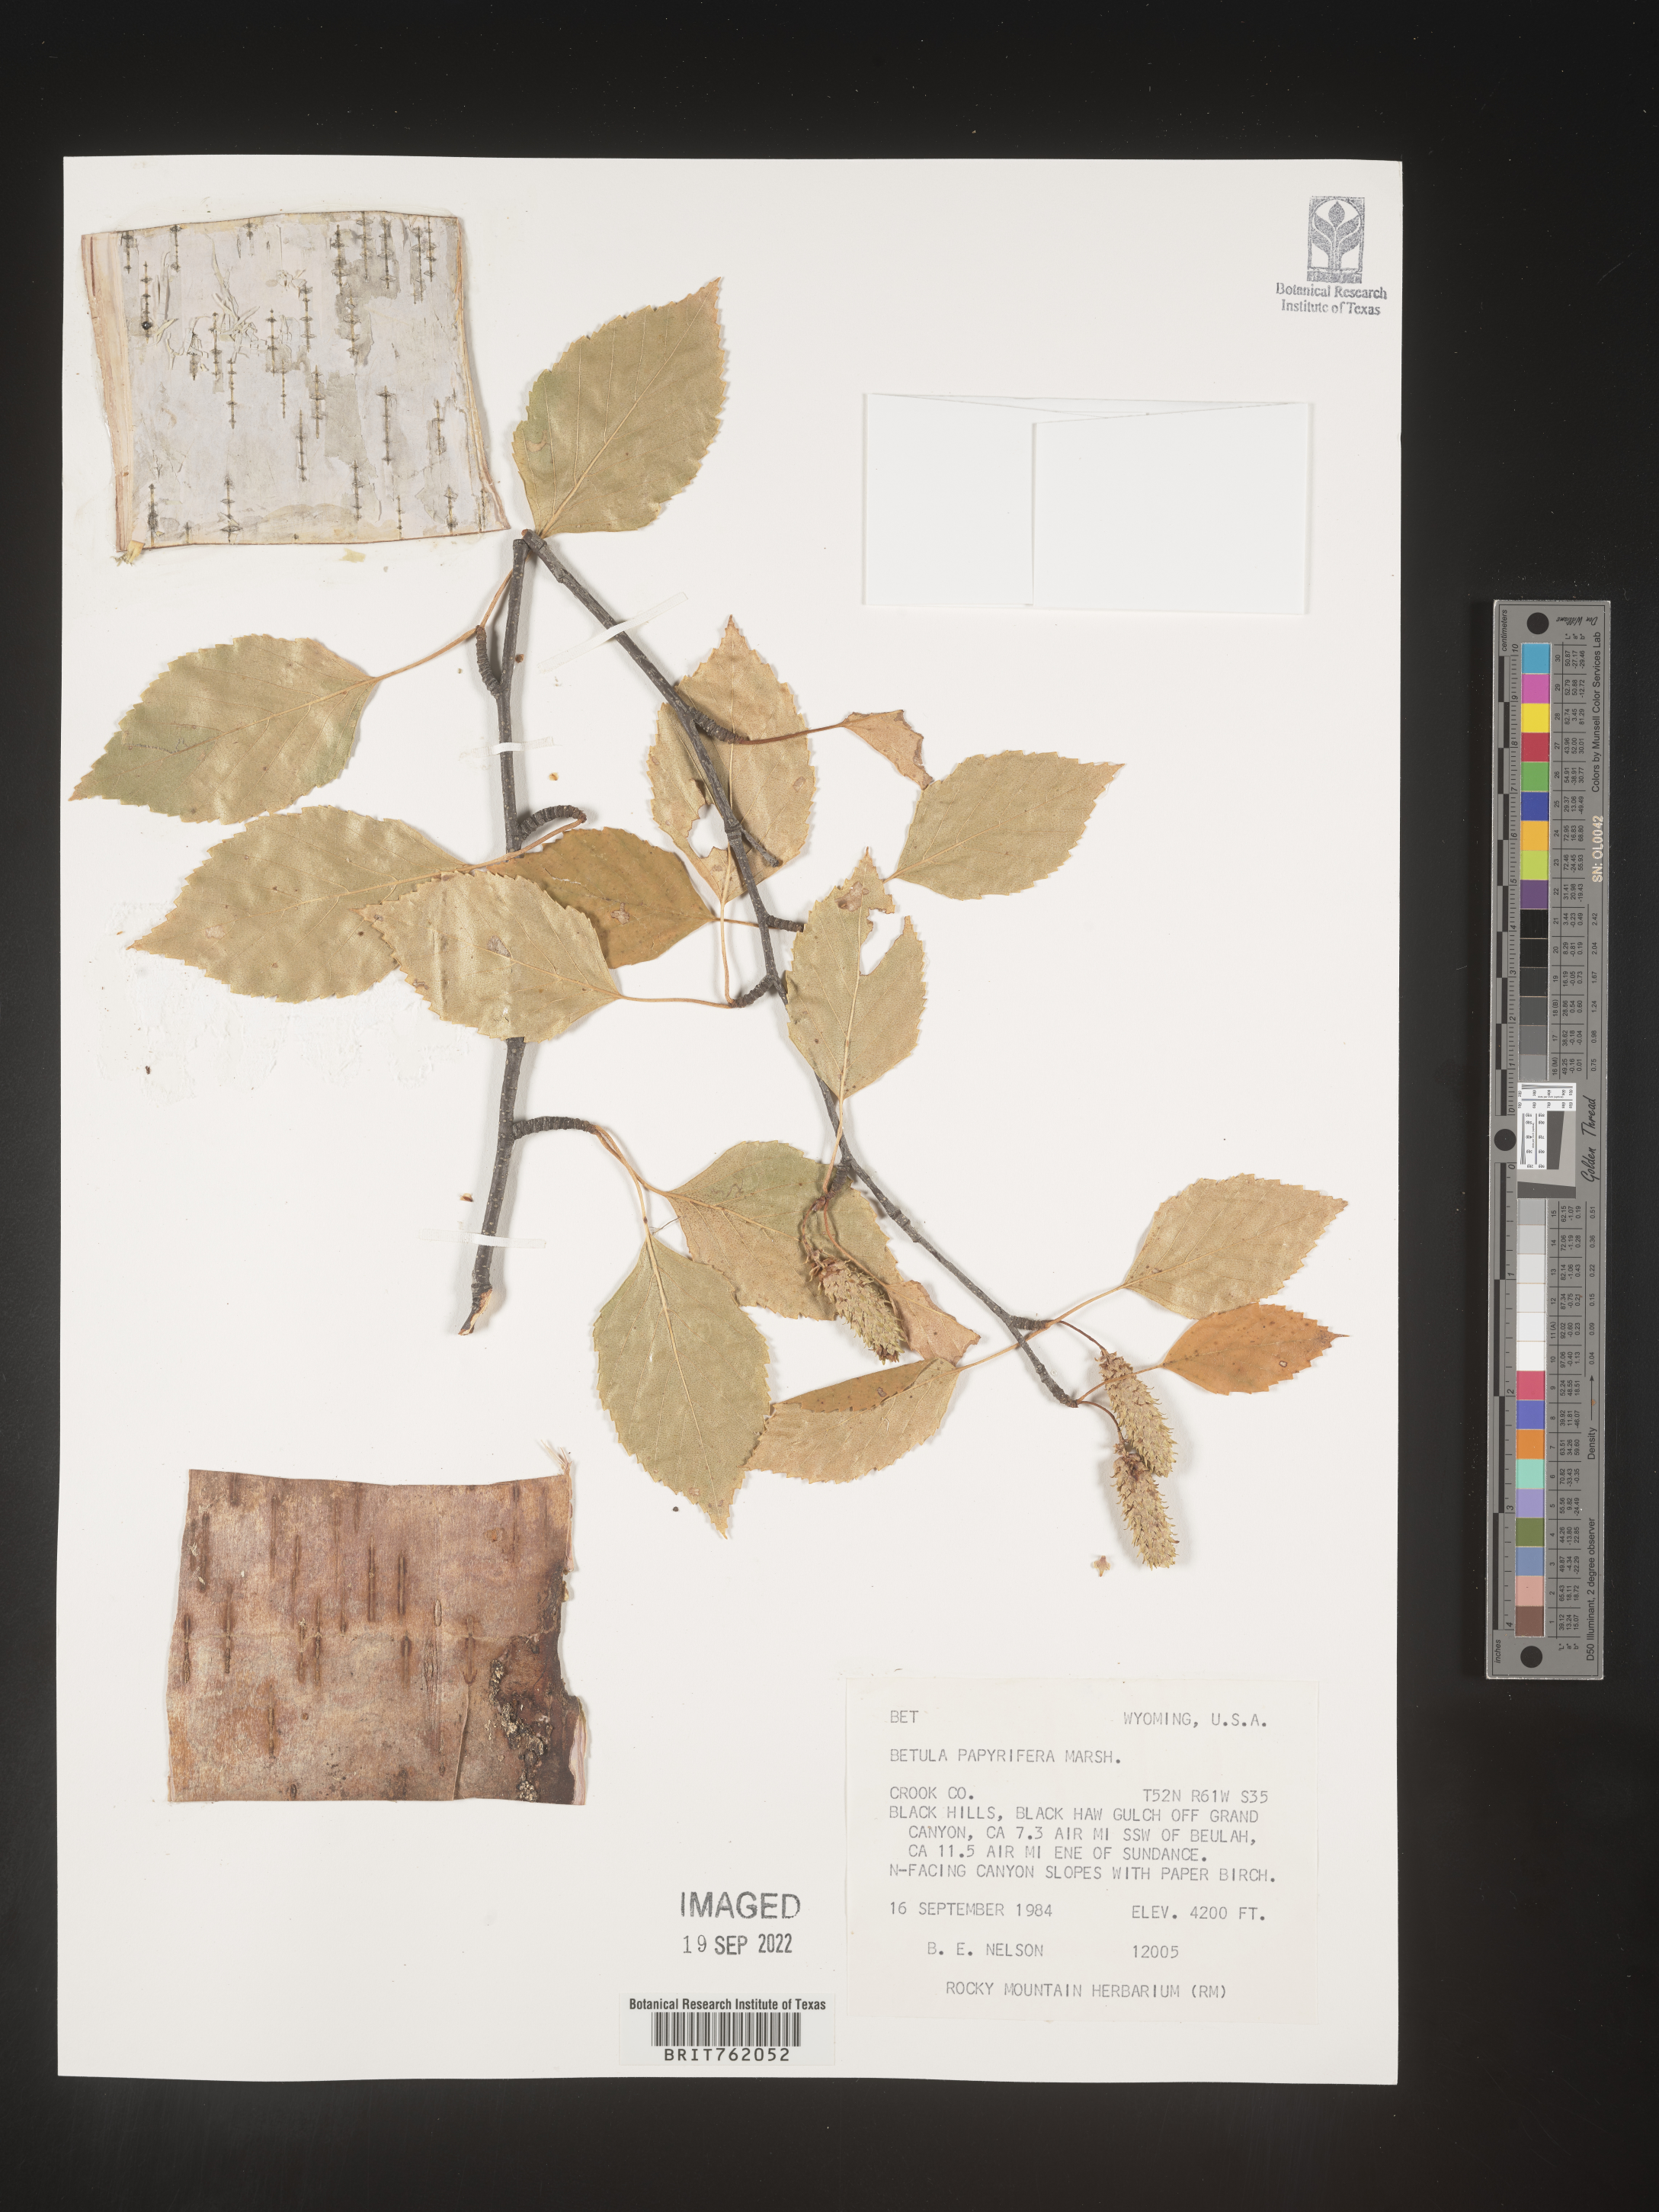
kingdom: Plantae
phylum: Tracheophyta
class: Magnoliopsida
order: Fagales
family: Betulaceae
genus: Betula
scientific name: Betula papyrifera
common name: Paper birch
